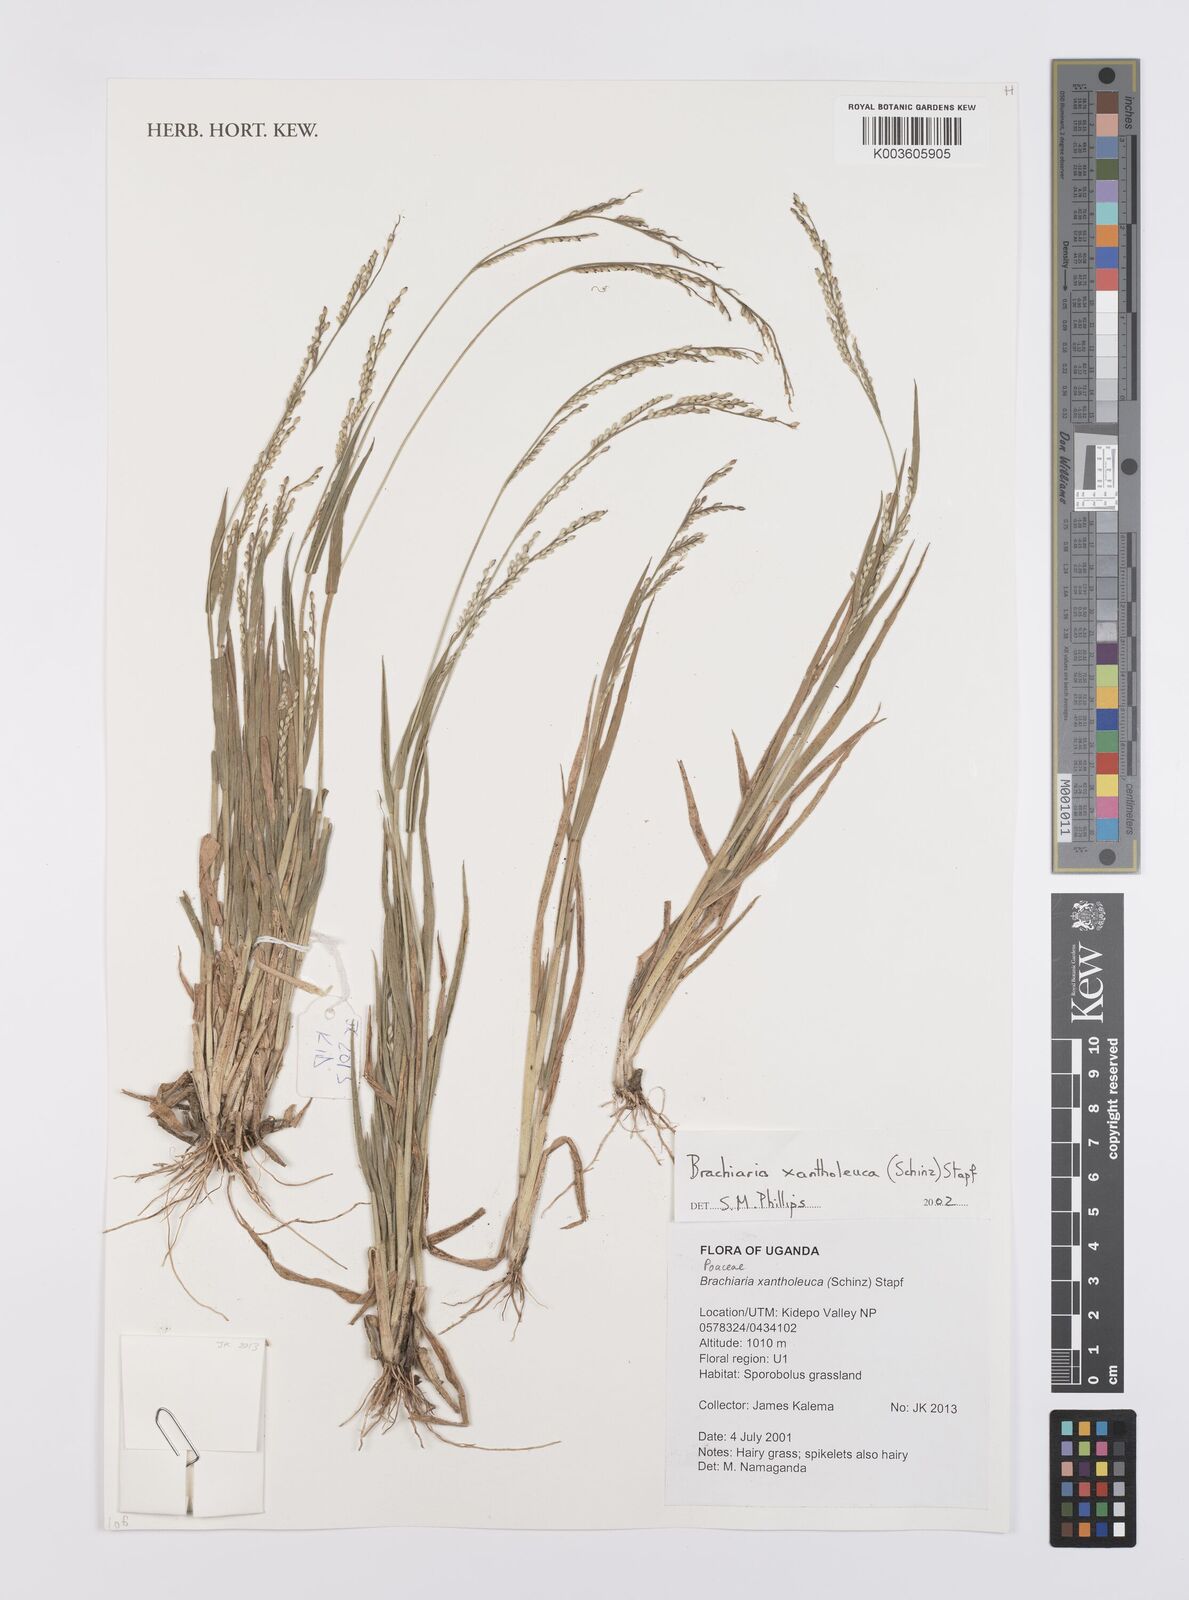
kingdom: Plantae
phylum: Tracheophyta
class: Liliopsida
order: Poales
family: Poaceae
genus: Urochloa
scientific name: Urochloa xantholeuca
